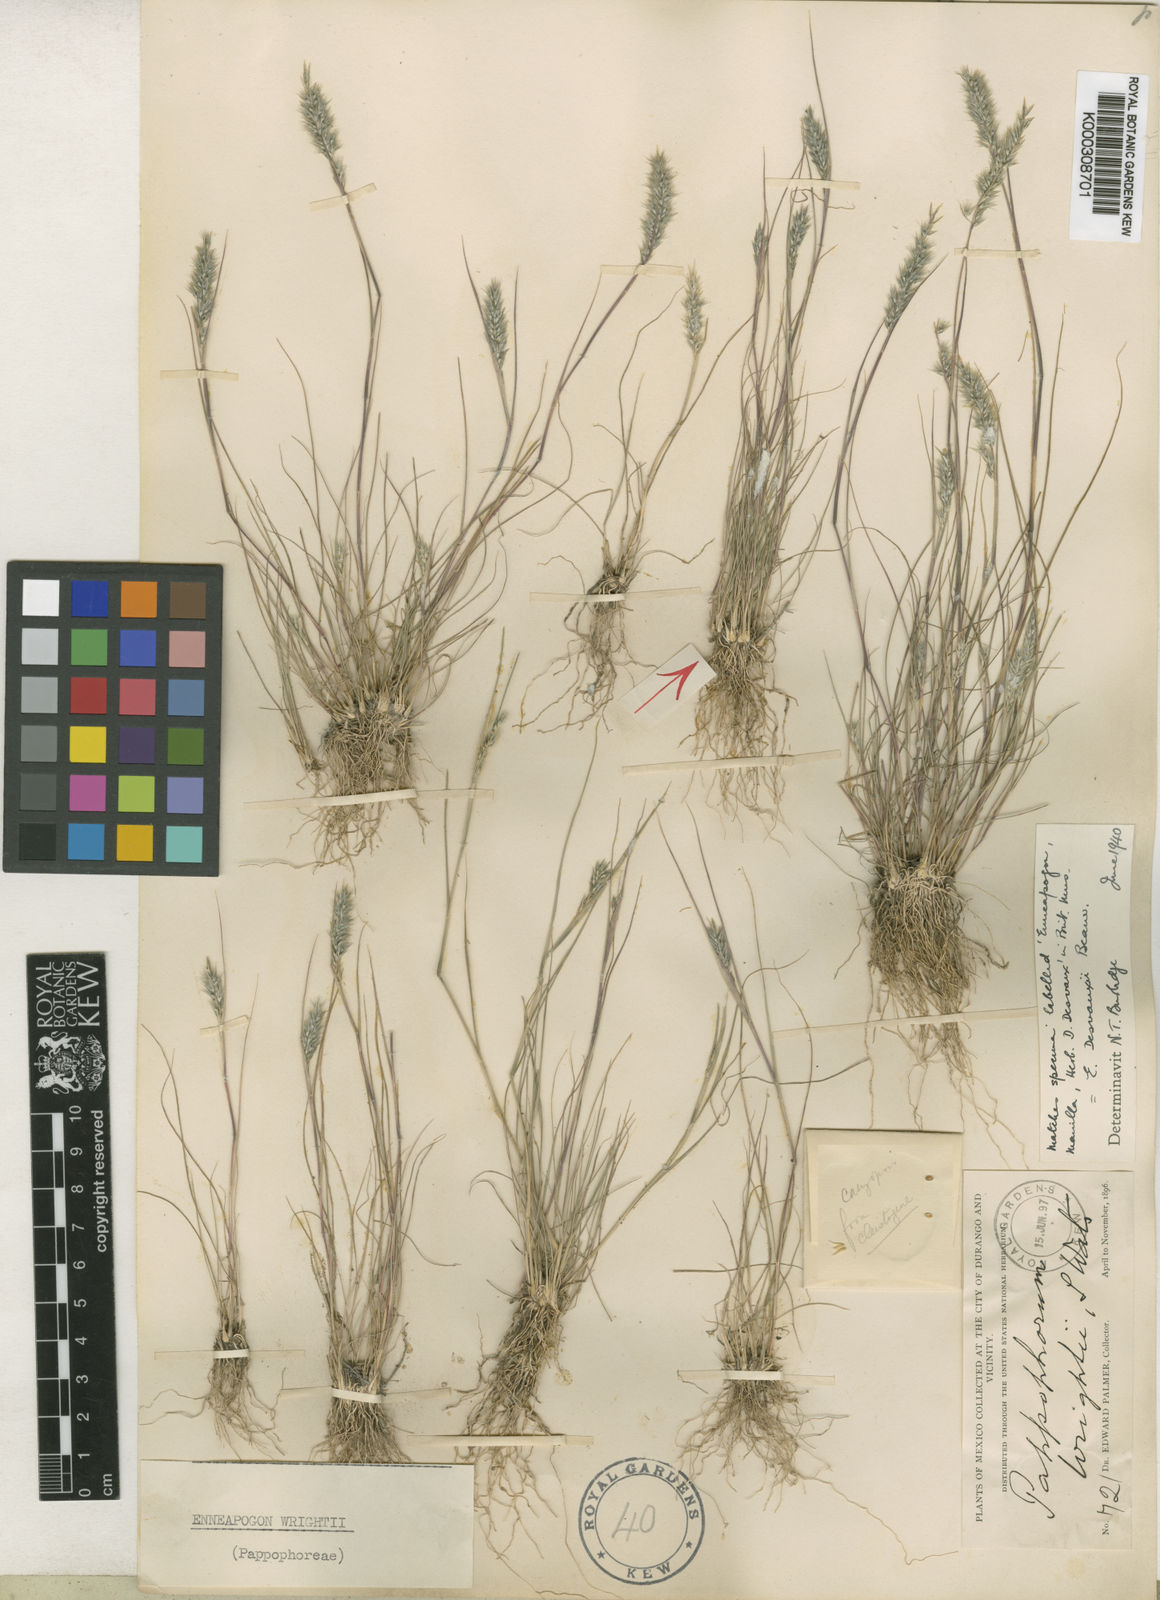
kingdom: Plantae
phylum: Tracheophyta
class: Liliopsida
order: Poales
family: Poaceae
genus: Enneapogon
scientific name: Enneapogon desvauxii
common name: Feather pappus grass
